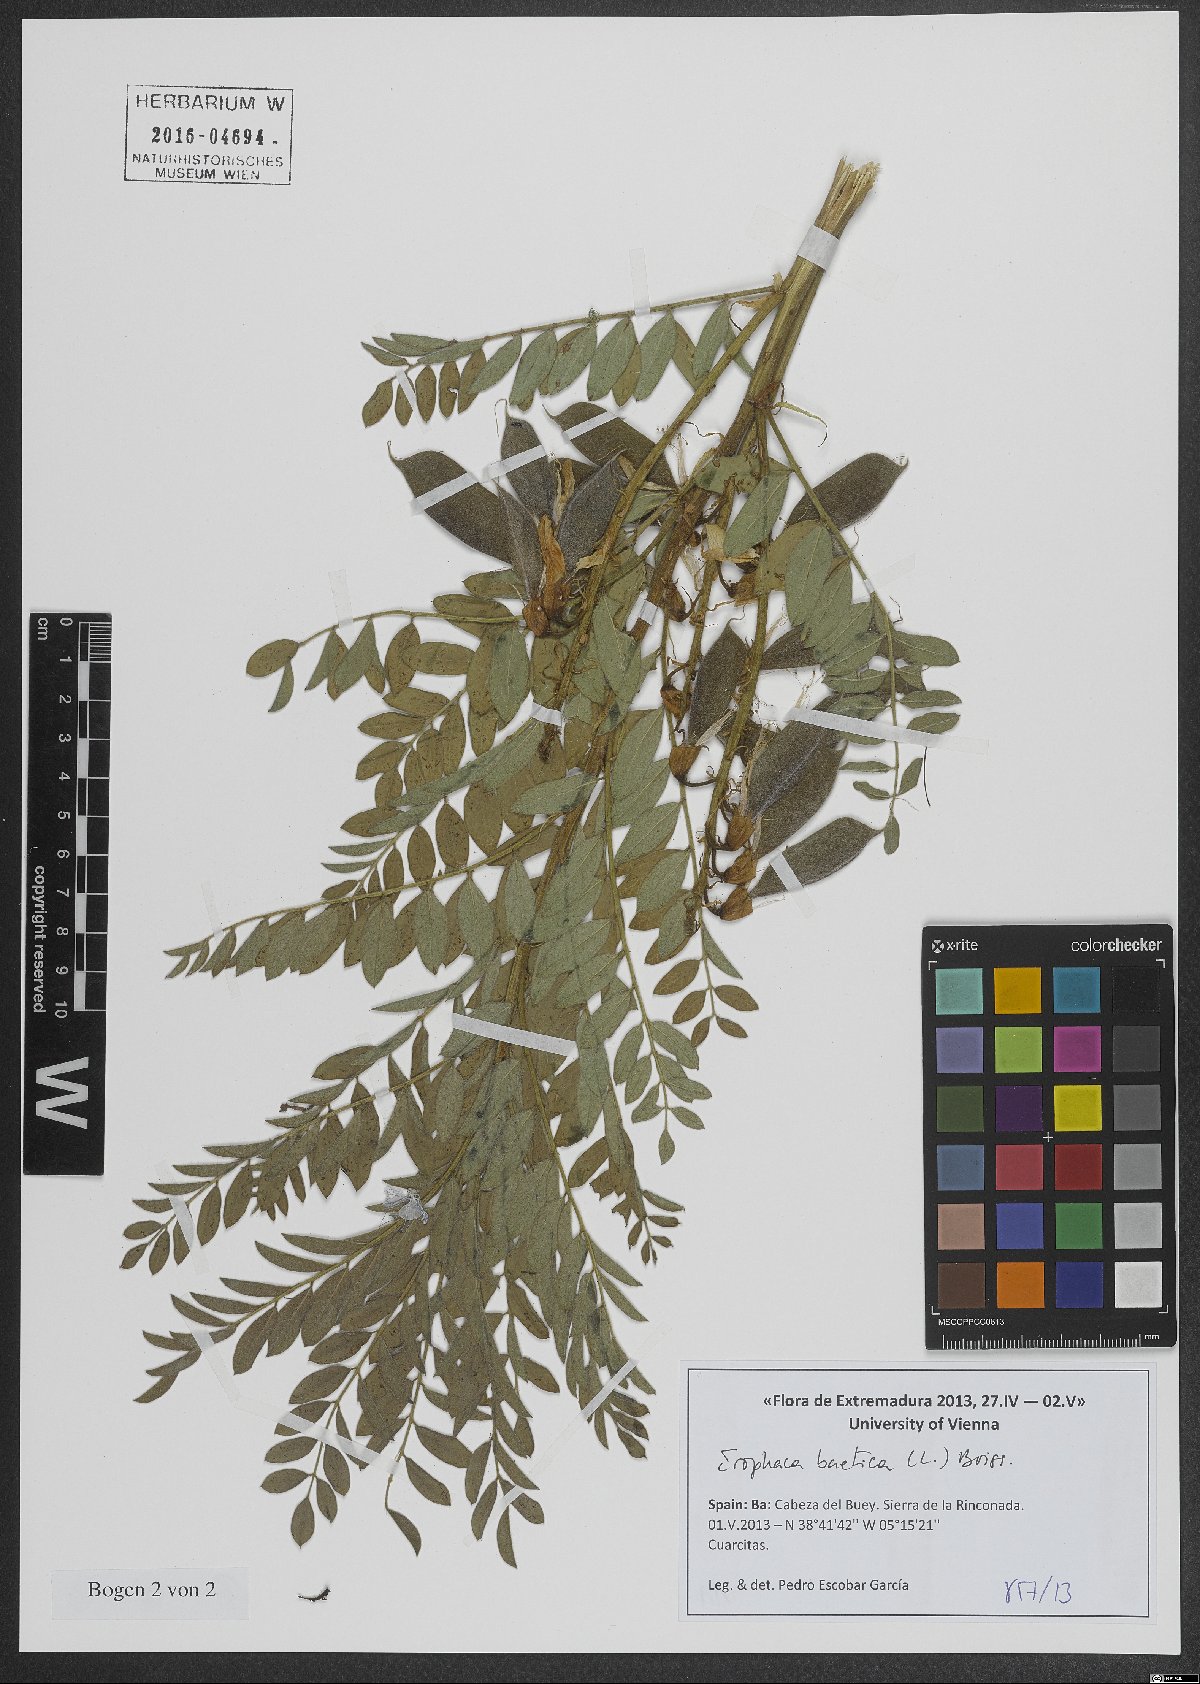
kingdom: Plantae
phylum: Tracheophyta
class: Magnoliopsida
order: Fabales
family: Fabaceae
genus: Erophaca
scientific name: Erophaca baetica
